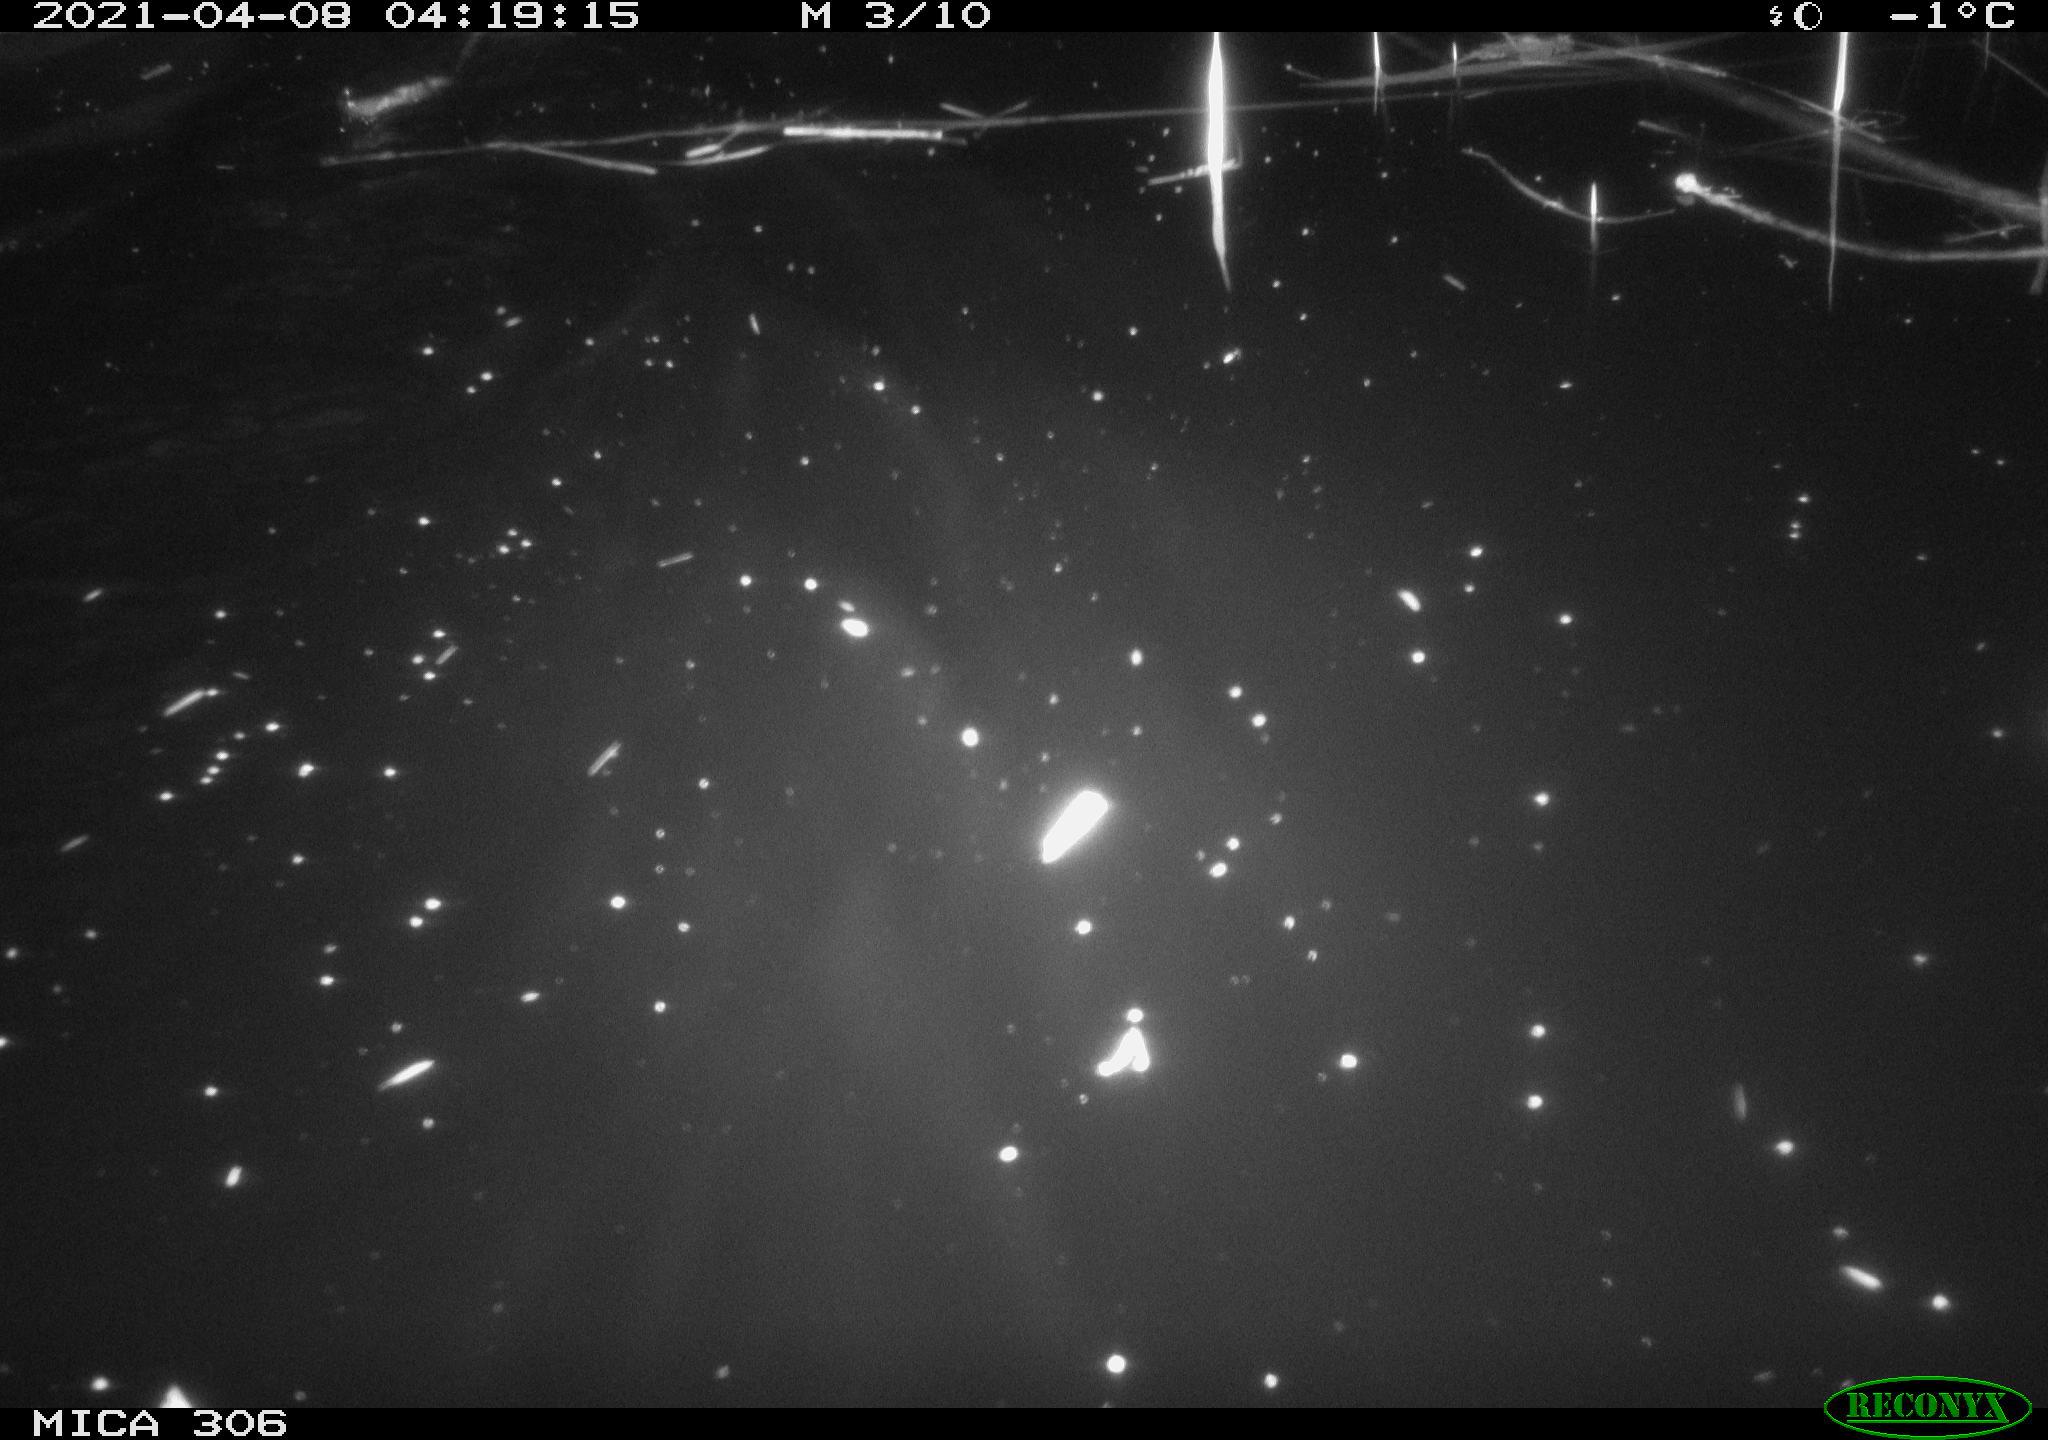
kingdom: Animalia
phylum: Chordata
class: Mammalia
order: Rodentia
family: Cricetidae
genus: Ondatra
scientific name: Ondatra zibethicus
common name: Muskrat
